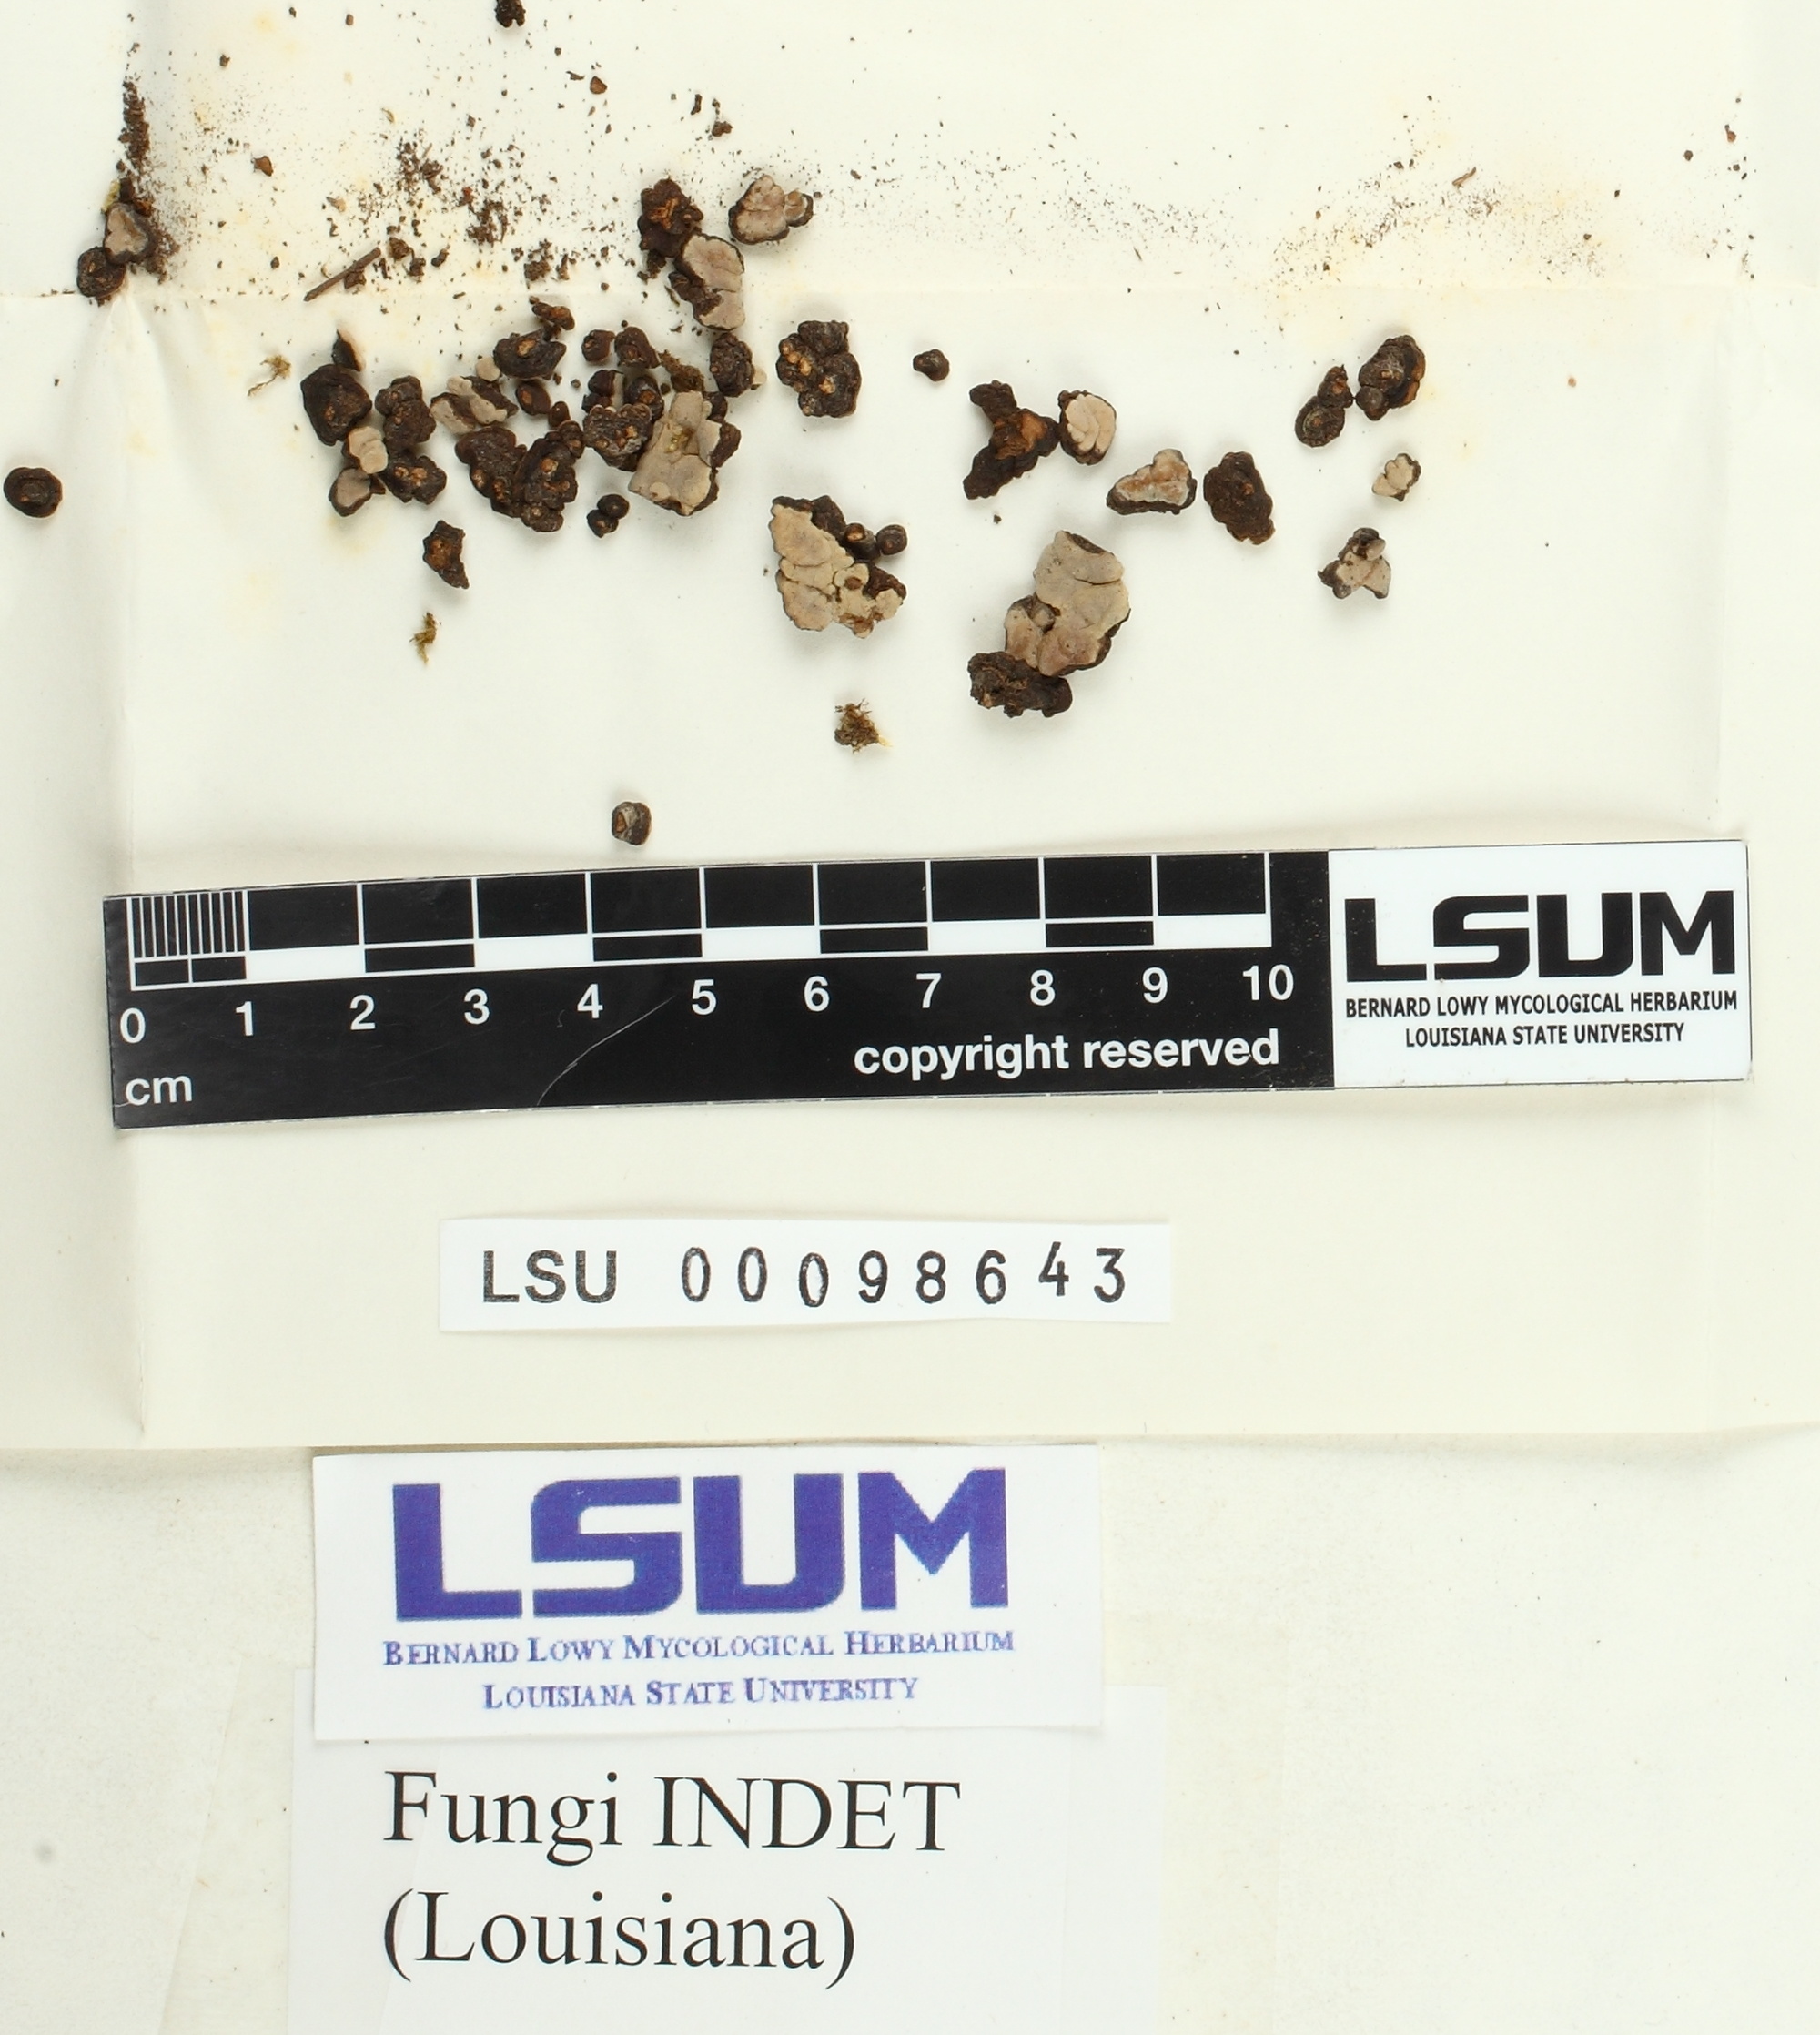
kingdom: Fungi
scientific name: Fungi
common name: Fungi
